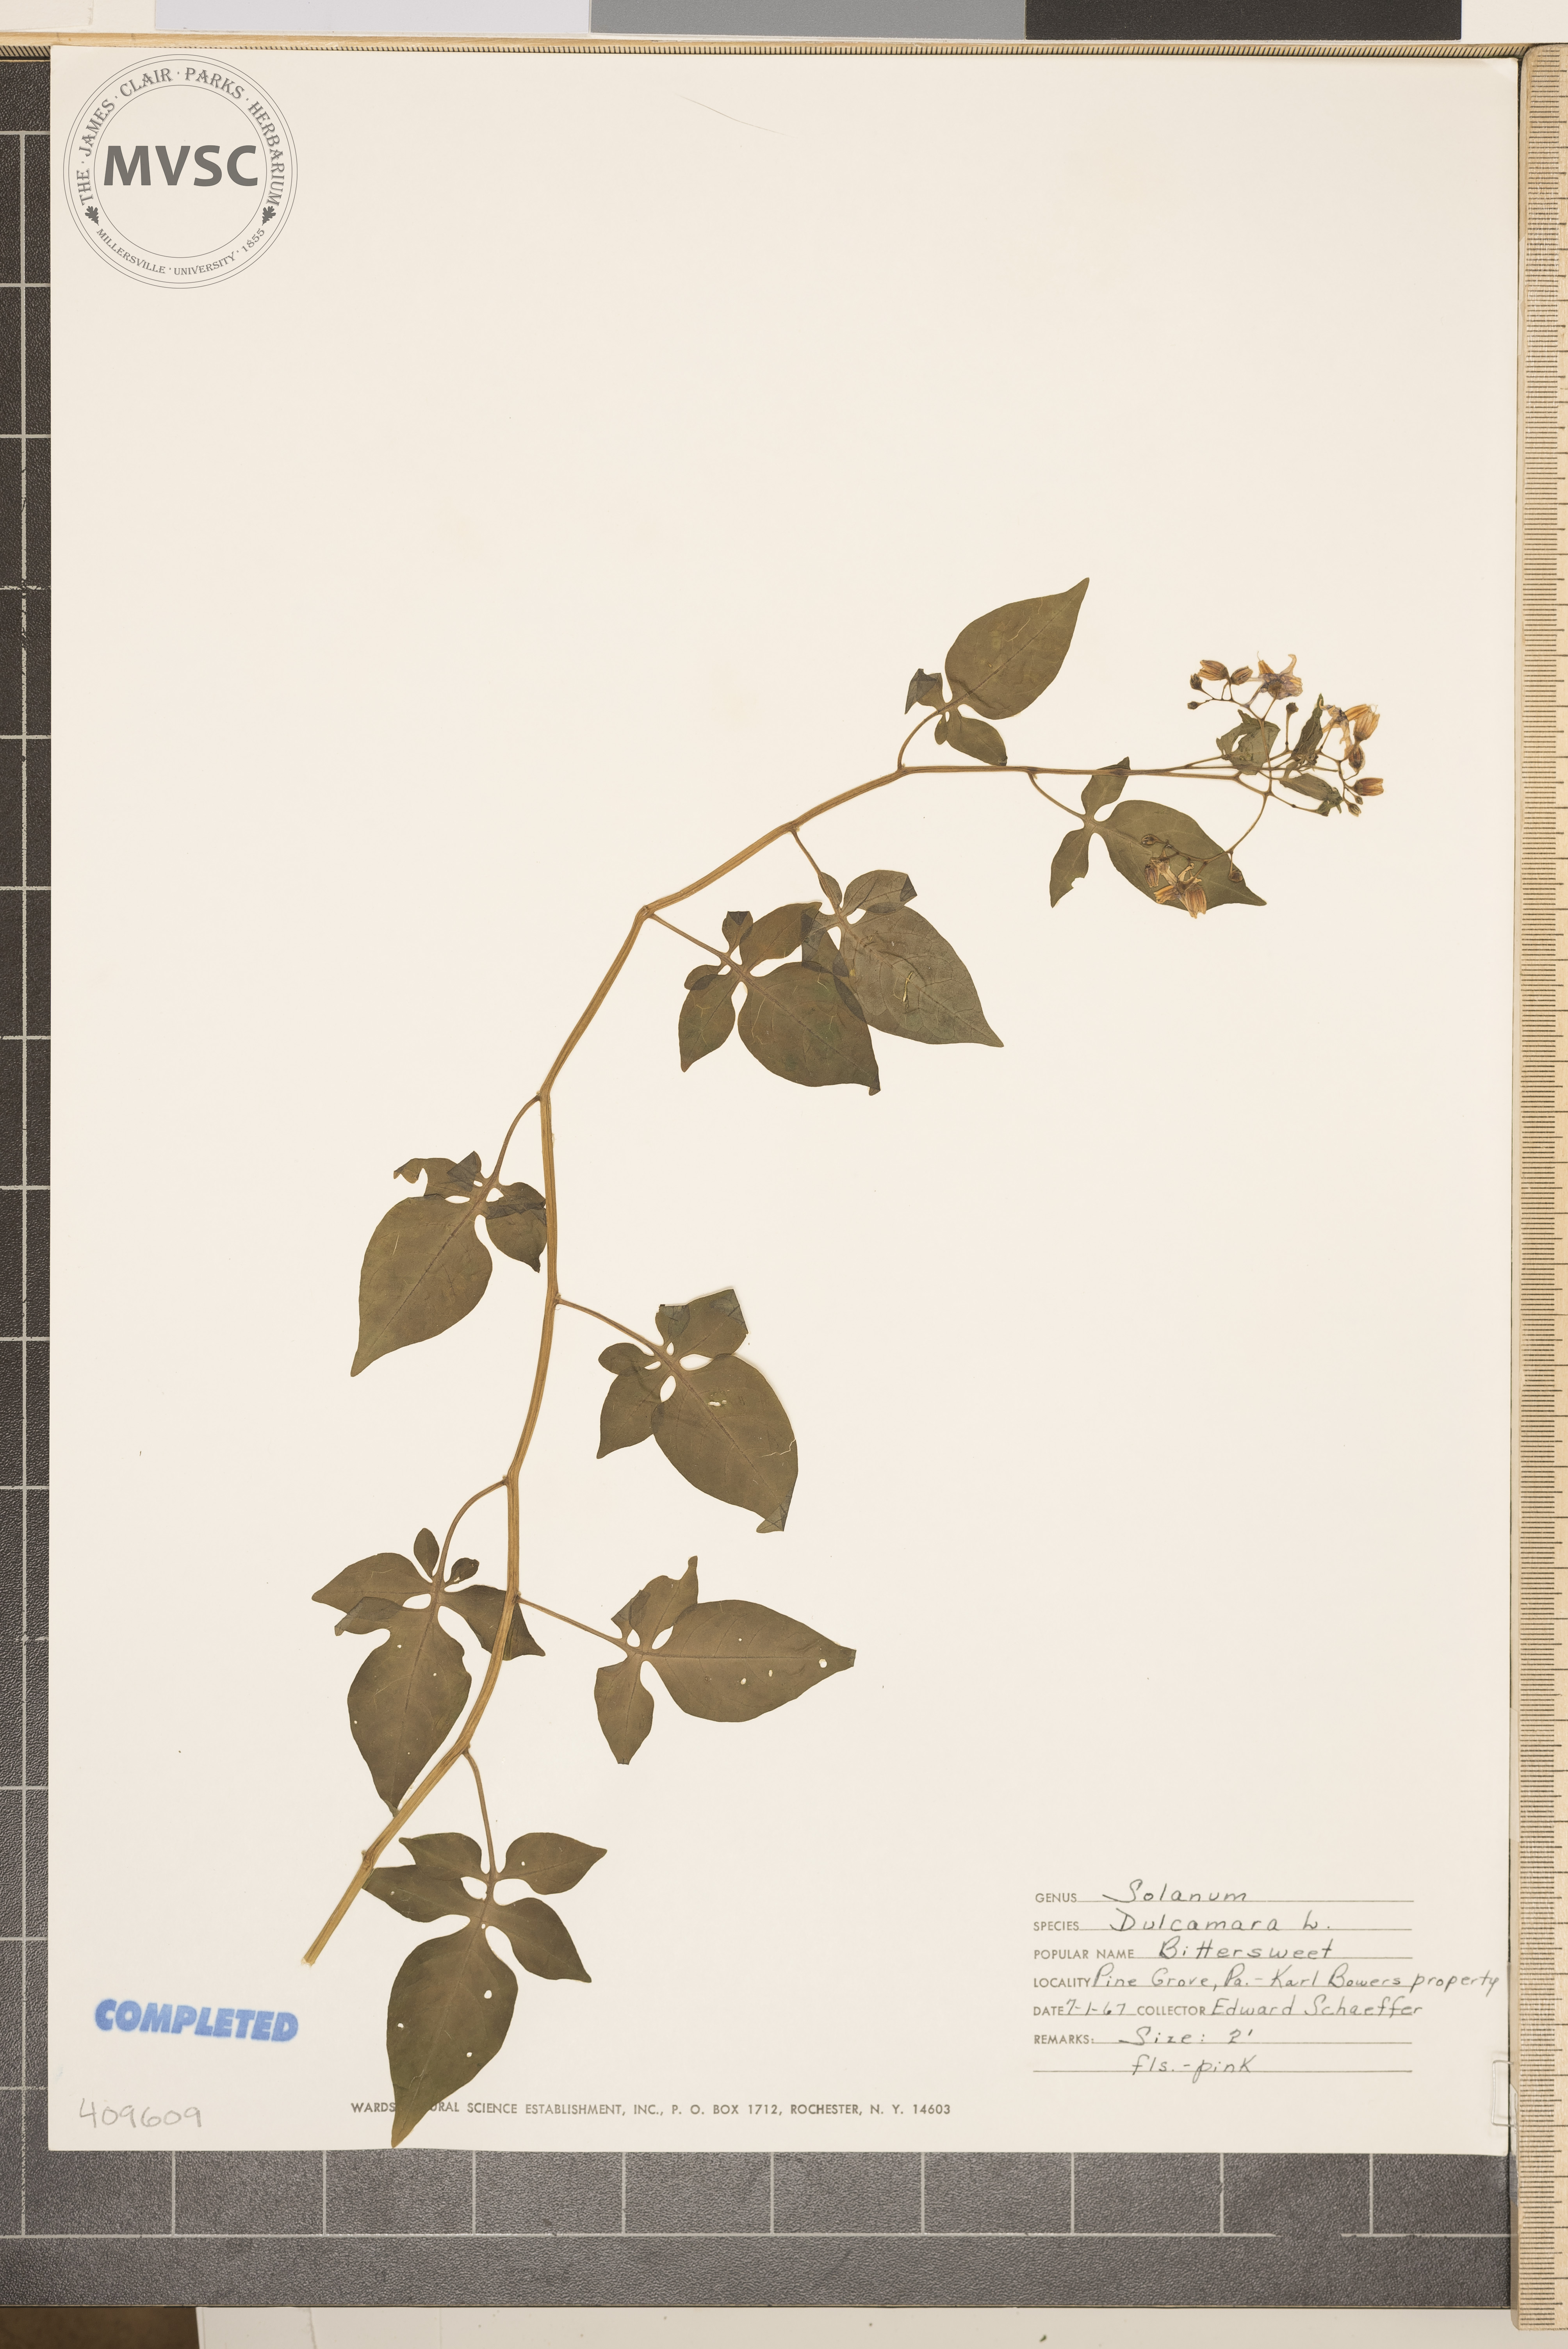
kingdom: Plantae
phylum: Tracheophyta
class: Magnoliopsida
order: Solanales
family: Solanaceae
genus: Solanum
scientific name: Solanum dulcamara
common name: Climbing nightshade
